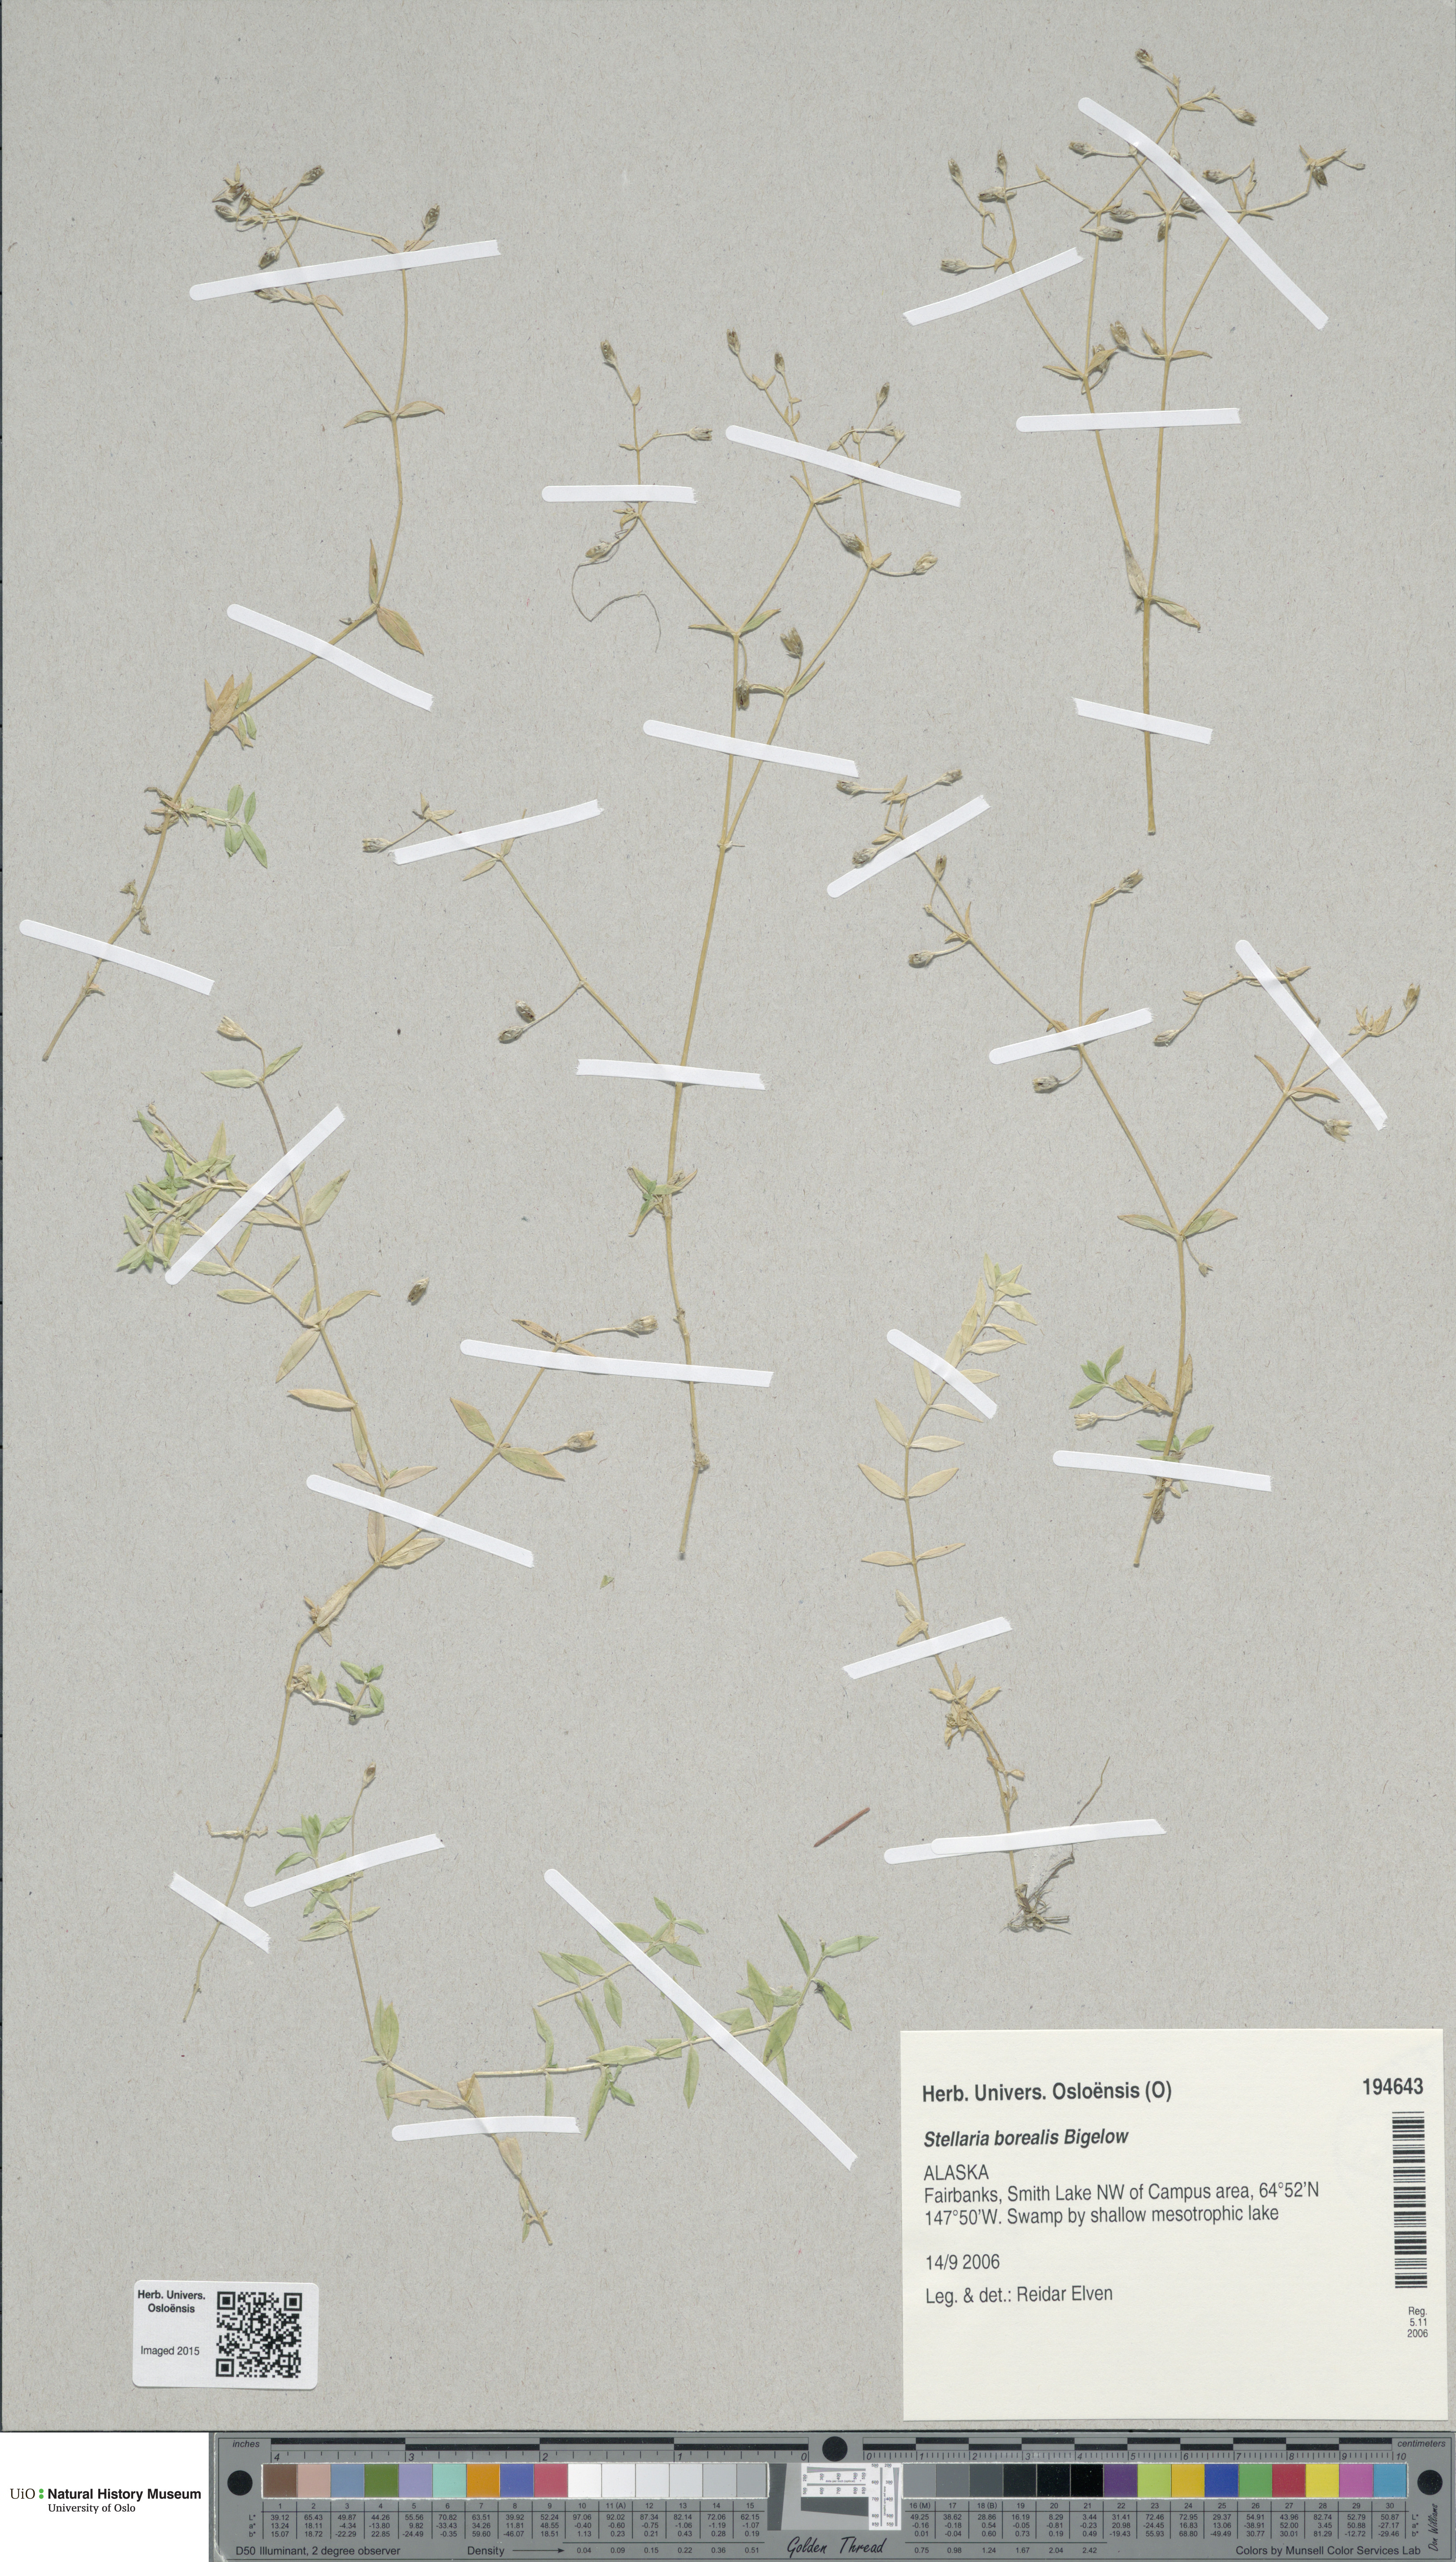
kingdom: Plantae
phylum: Tracheophyta
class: Magnoliopsida
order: Caryophyllales
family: Caryophyllaceae
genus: Stellaria
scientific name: Stellaria borealis
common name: Boreal starwort
